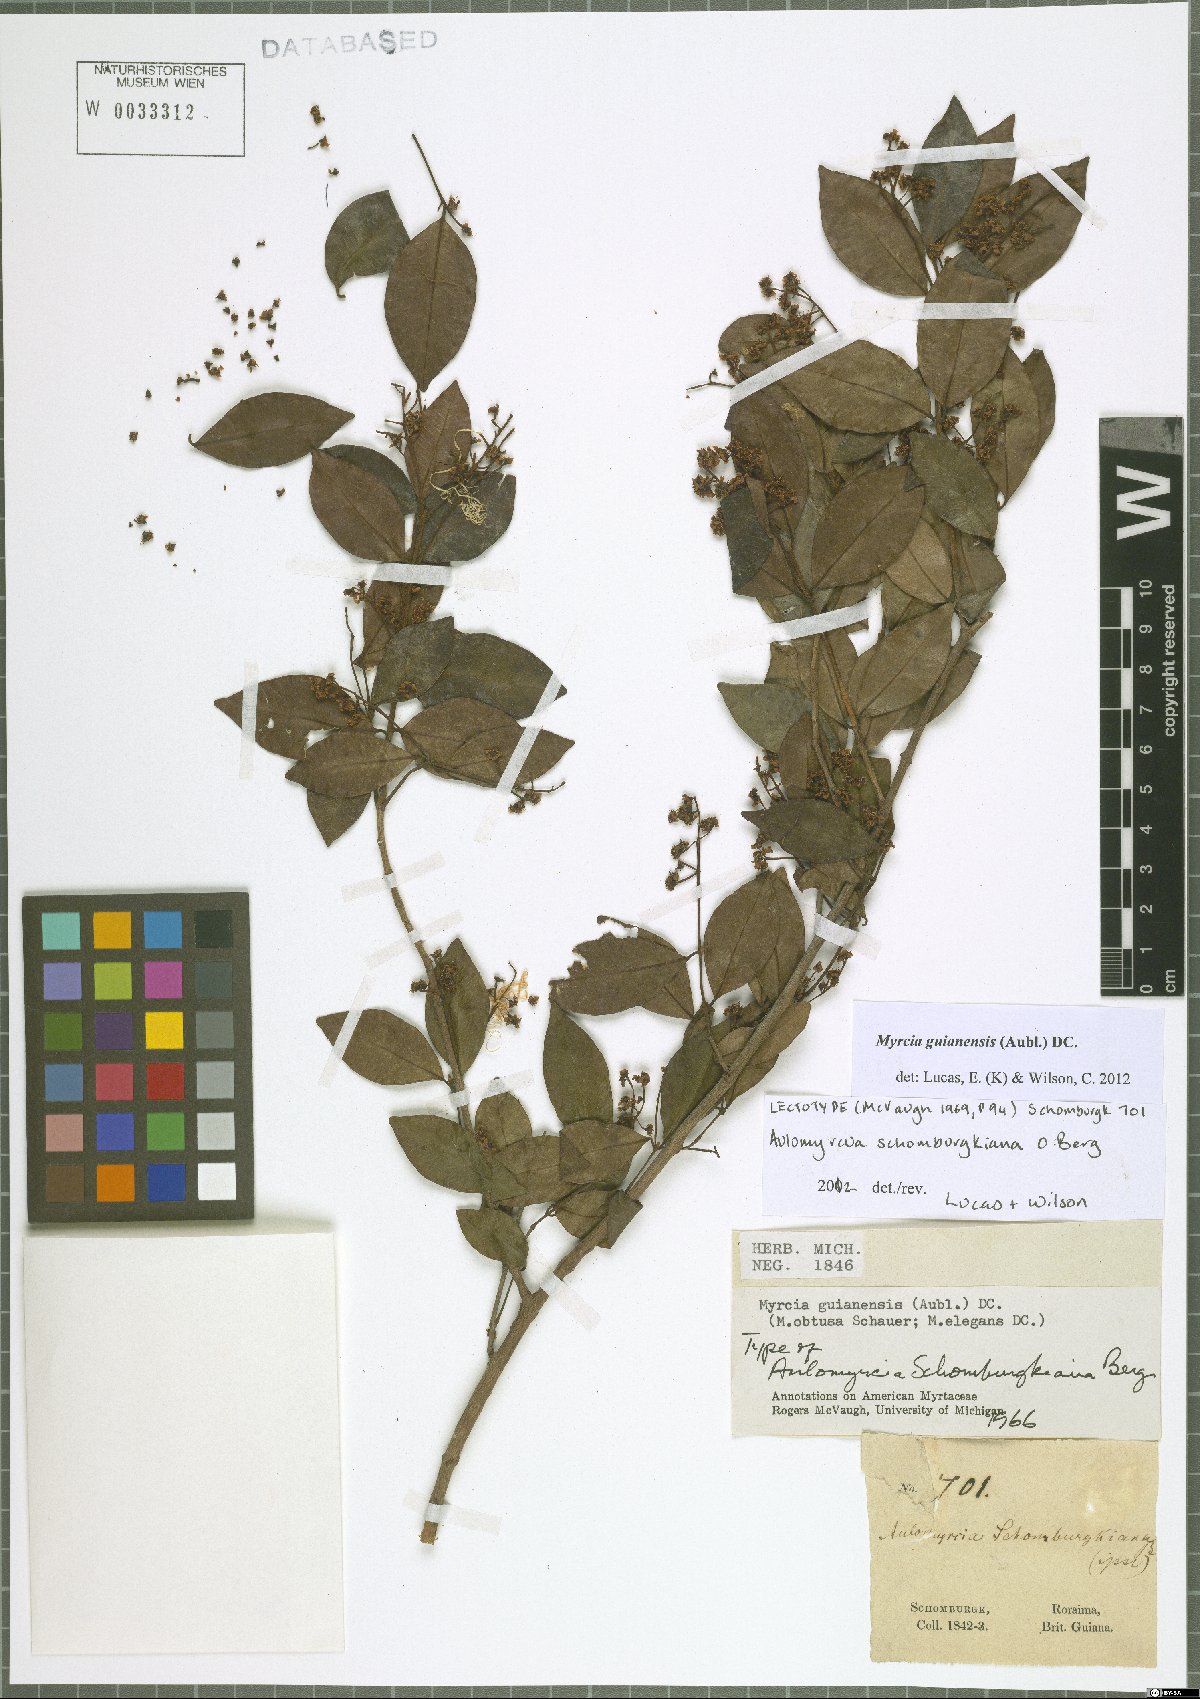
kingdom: Plantae
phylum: Tracheophyta
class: Magnoliopsida
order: Myrtales
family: Myrtaceae
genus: Myrcia
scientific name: Myrcia guianensis
